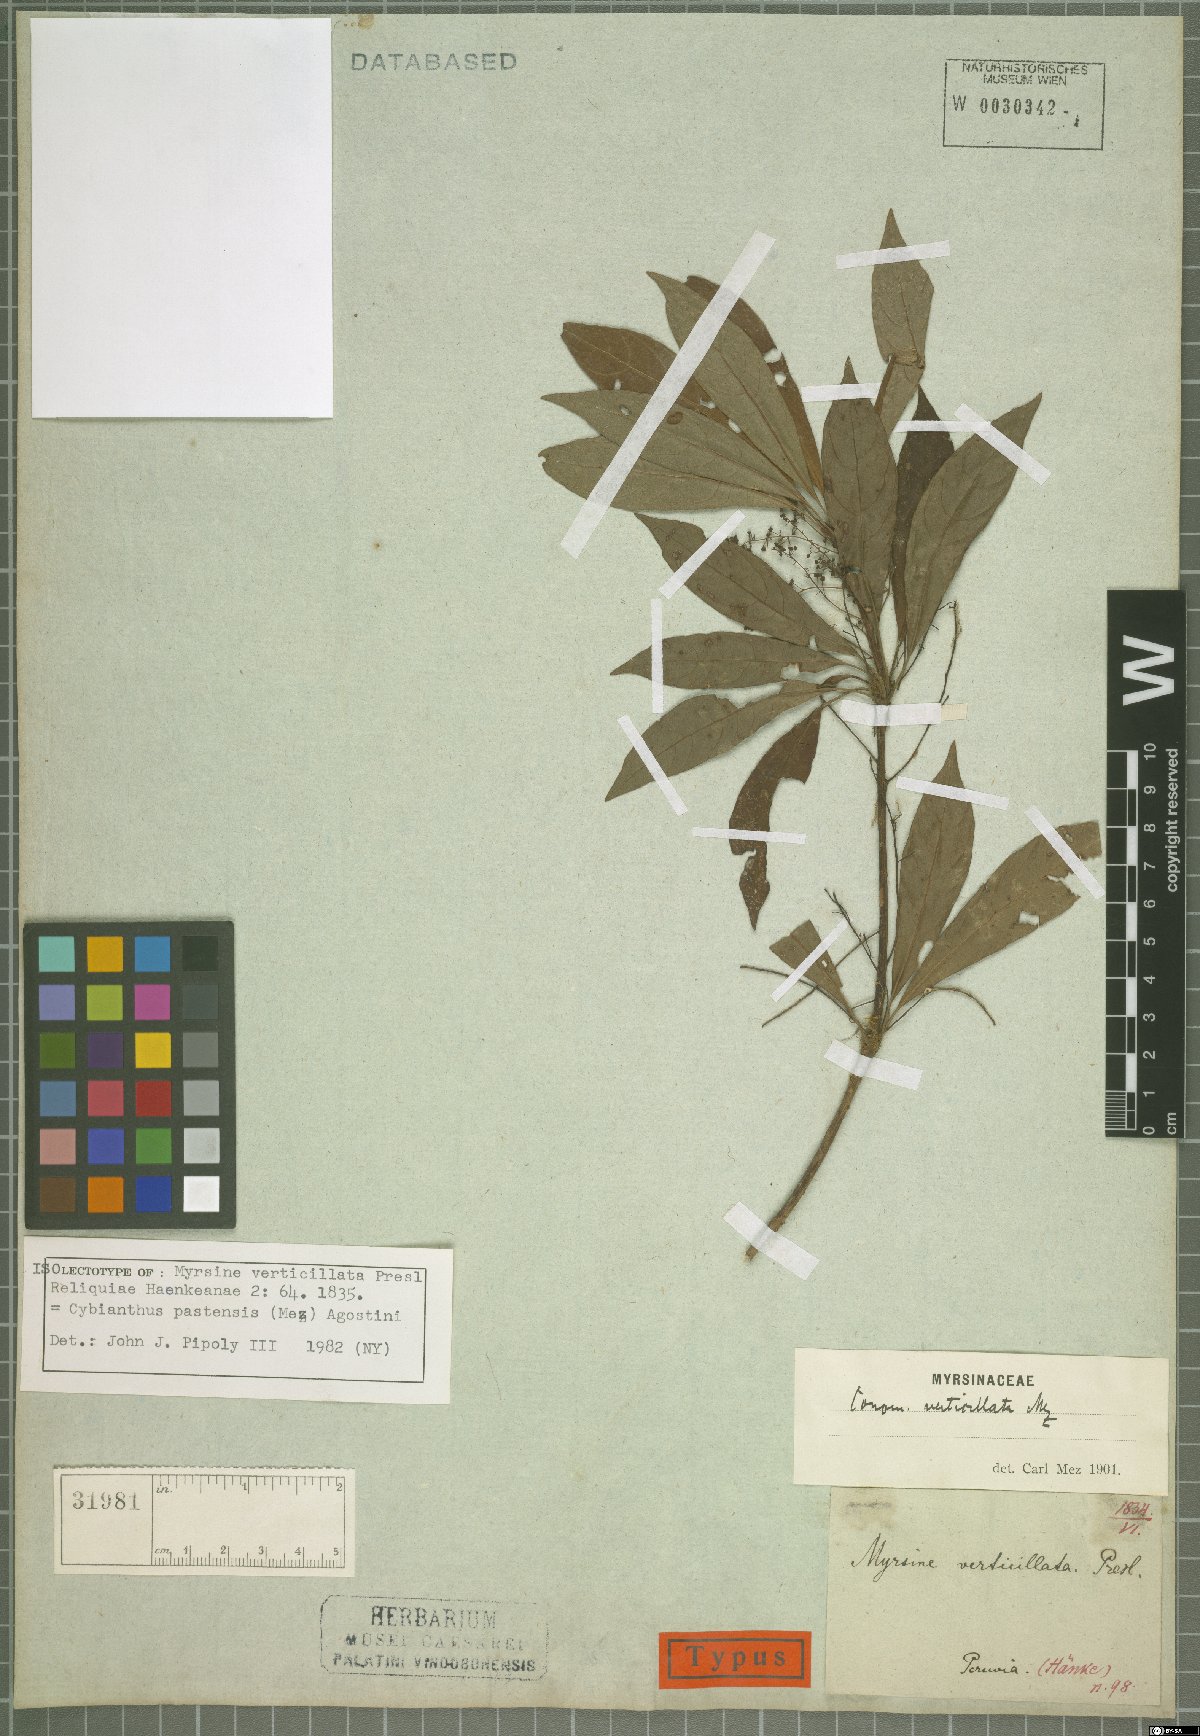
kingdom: Plantae
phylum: Tracheophyta
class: Magnoliopsida
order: Ericales
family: Primulaceae
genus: Cybianthus
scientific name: Cybianthus pastensis
